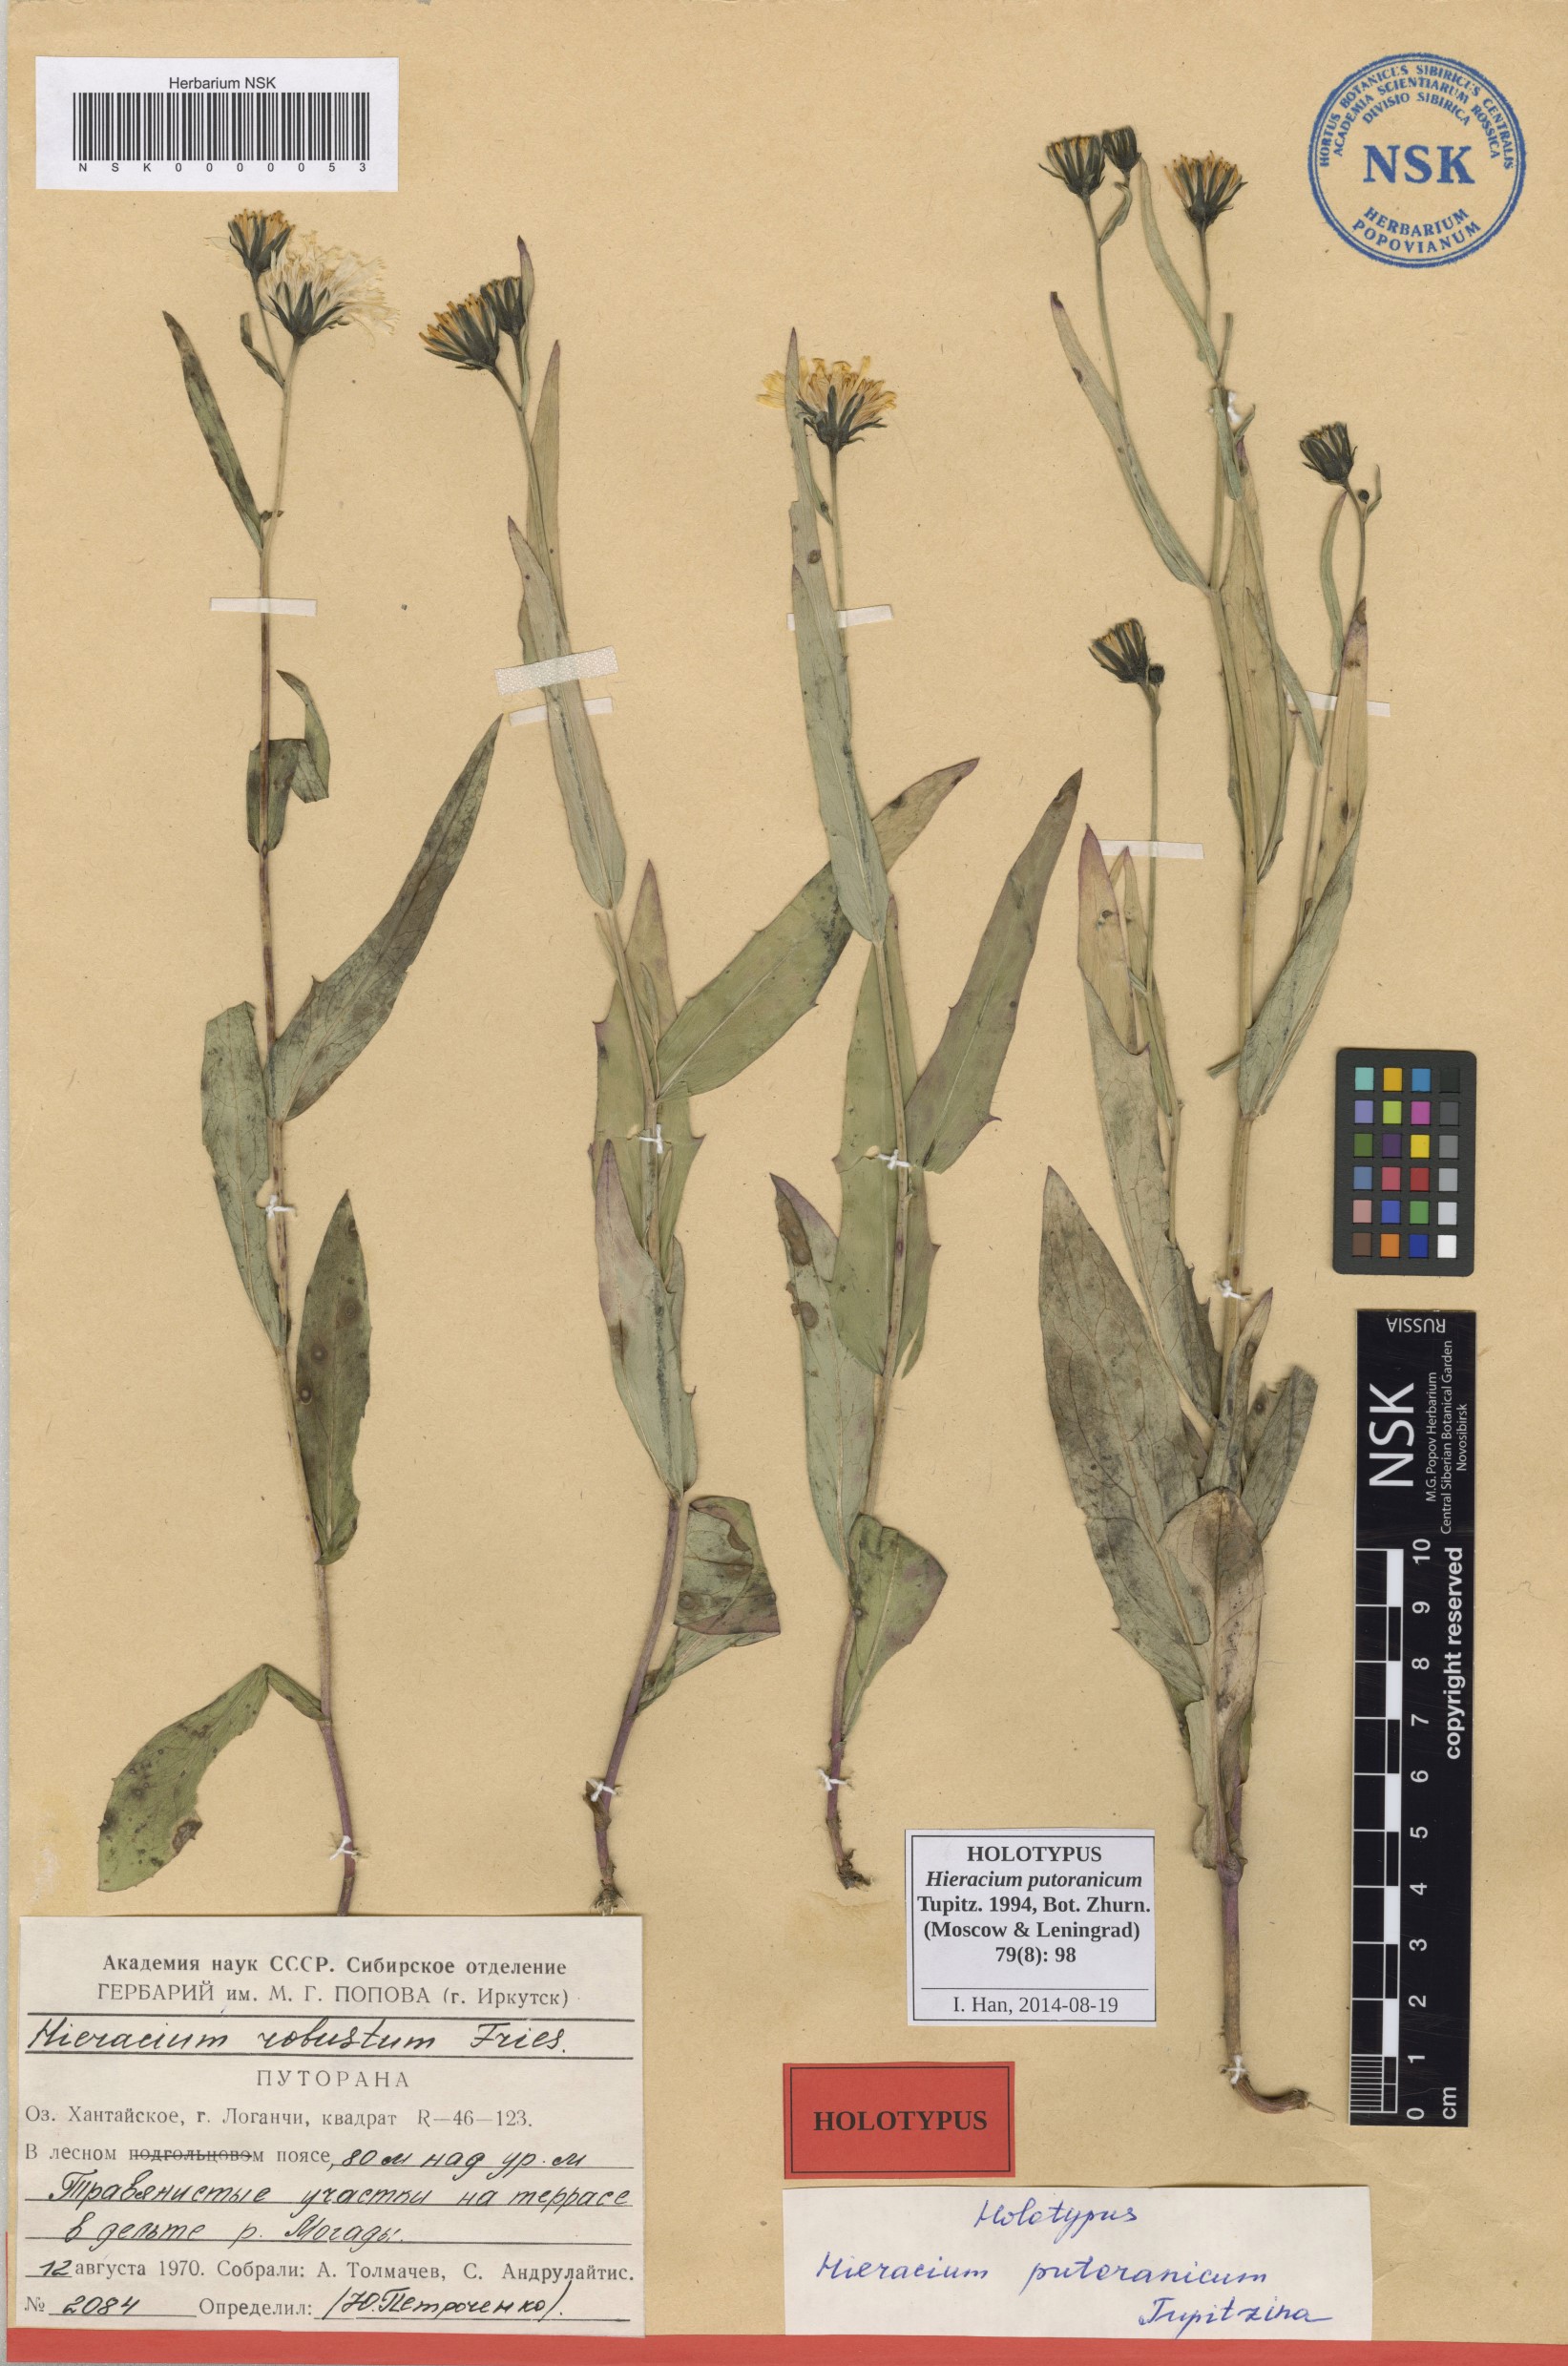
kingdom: Plantae
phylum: Tracheophyta
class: Magnoliopsida
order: Asterales
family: Asteraceae
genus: Hieracium
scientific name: Hieracium putoranicum
